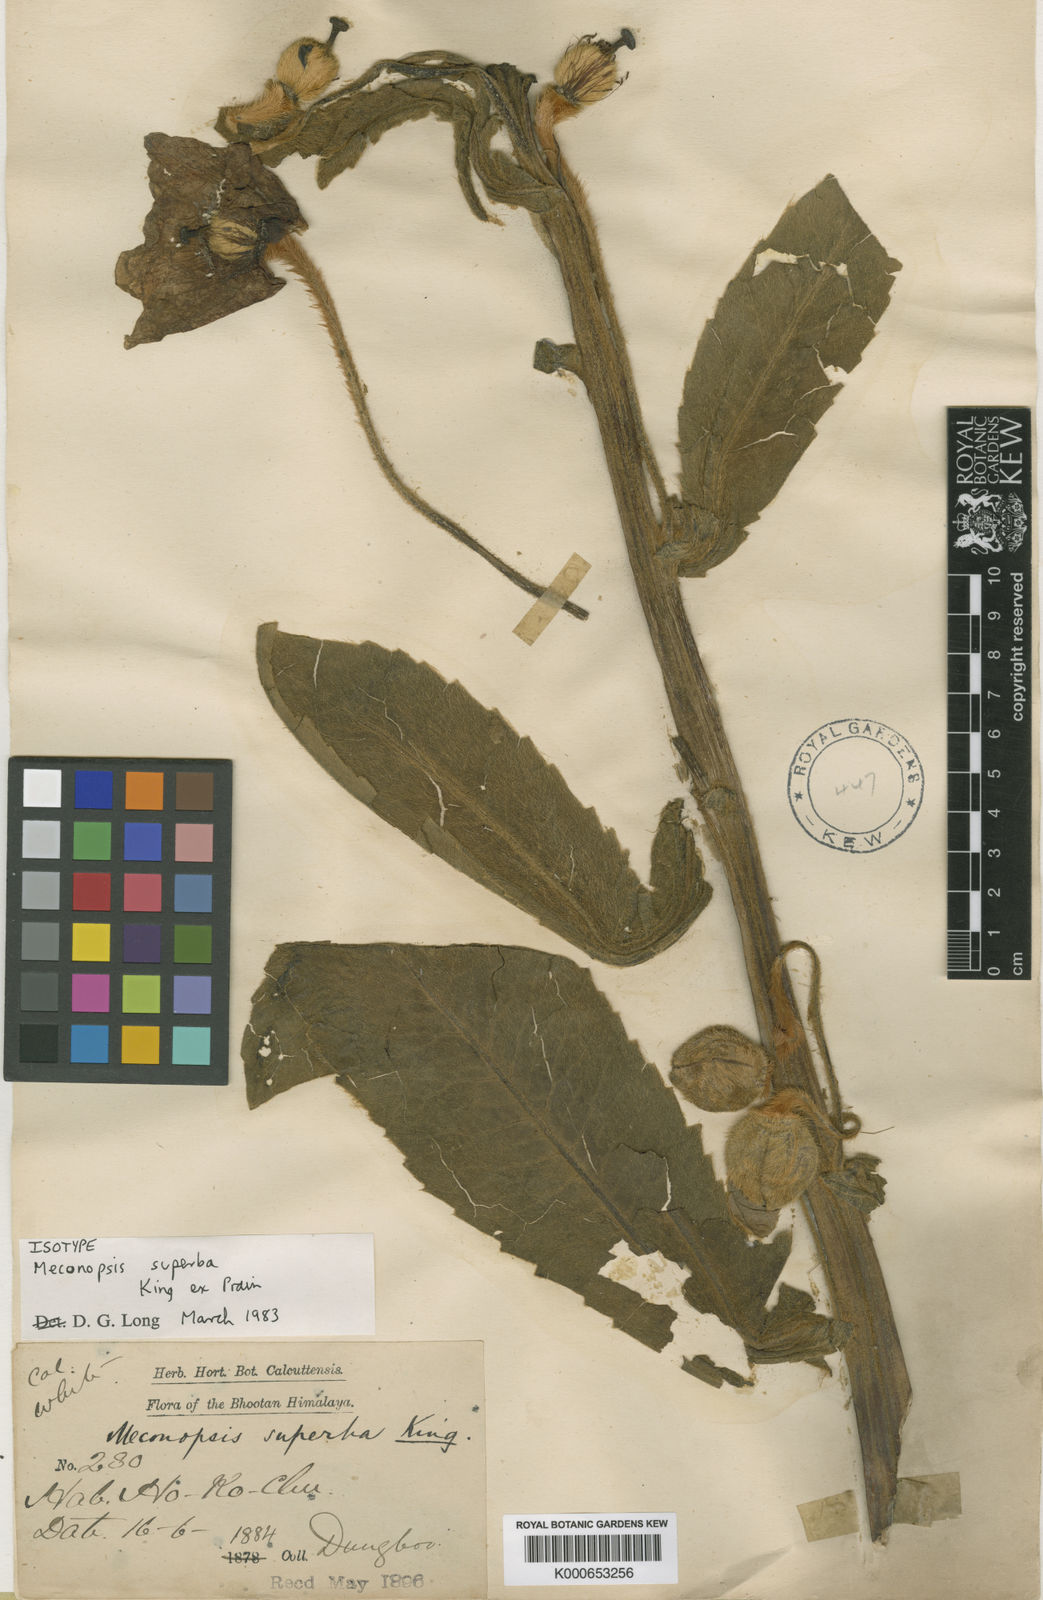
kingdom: Plantae
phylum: Tracheophyta
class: Magnoliopsida
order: Ranunculales
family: Papaveraceae
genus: Meconopsis
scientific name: Meconopsis superba
